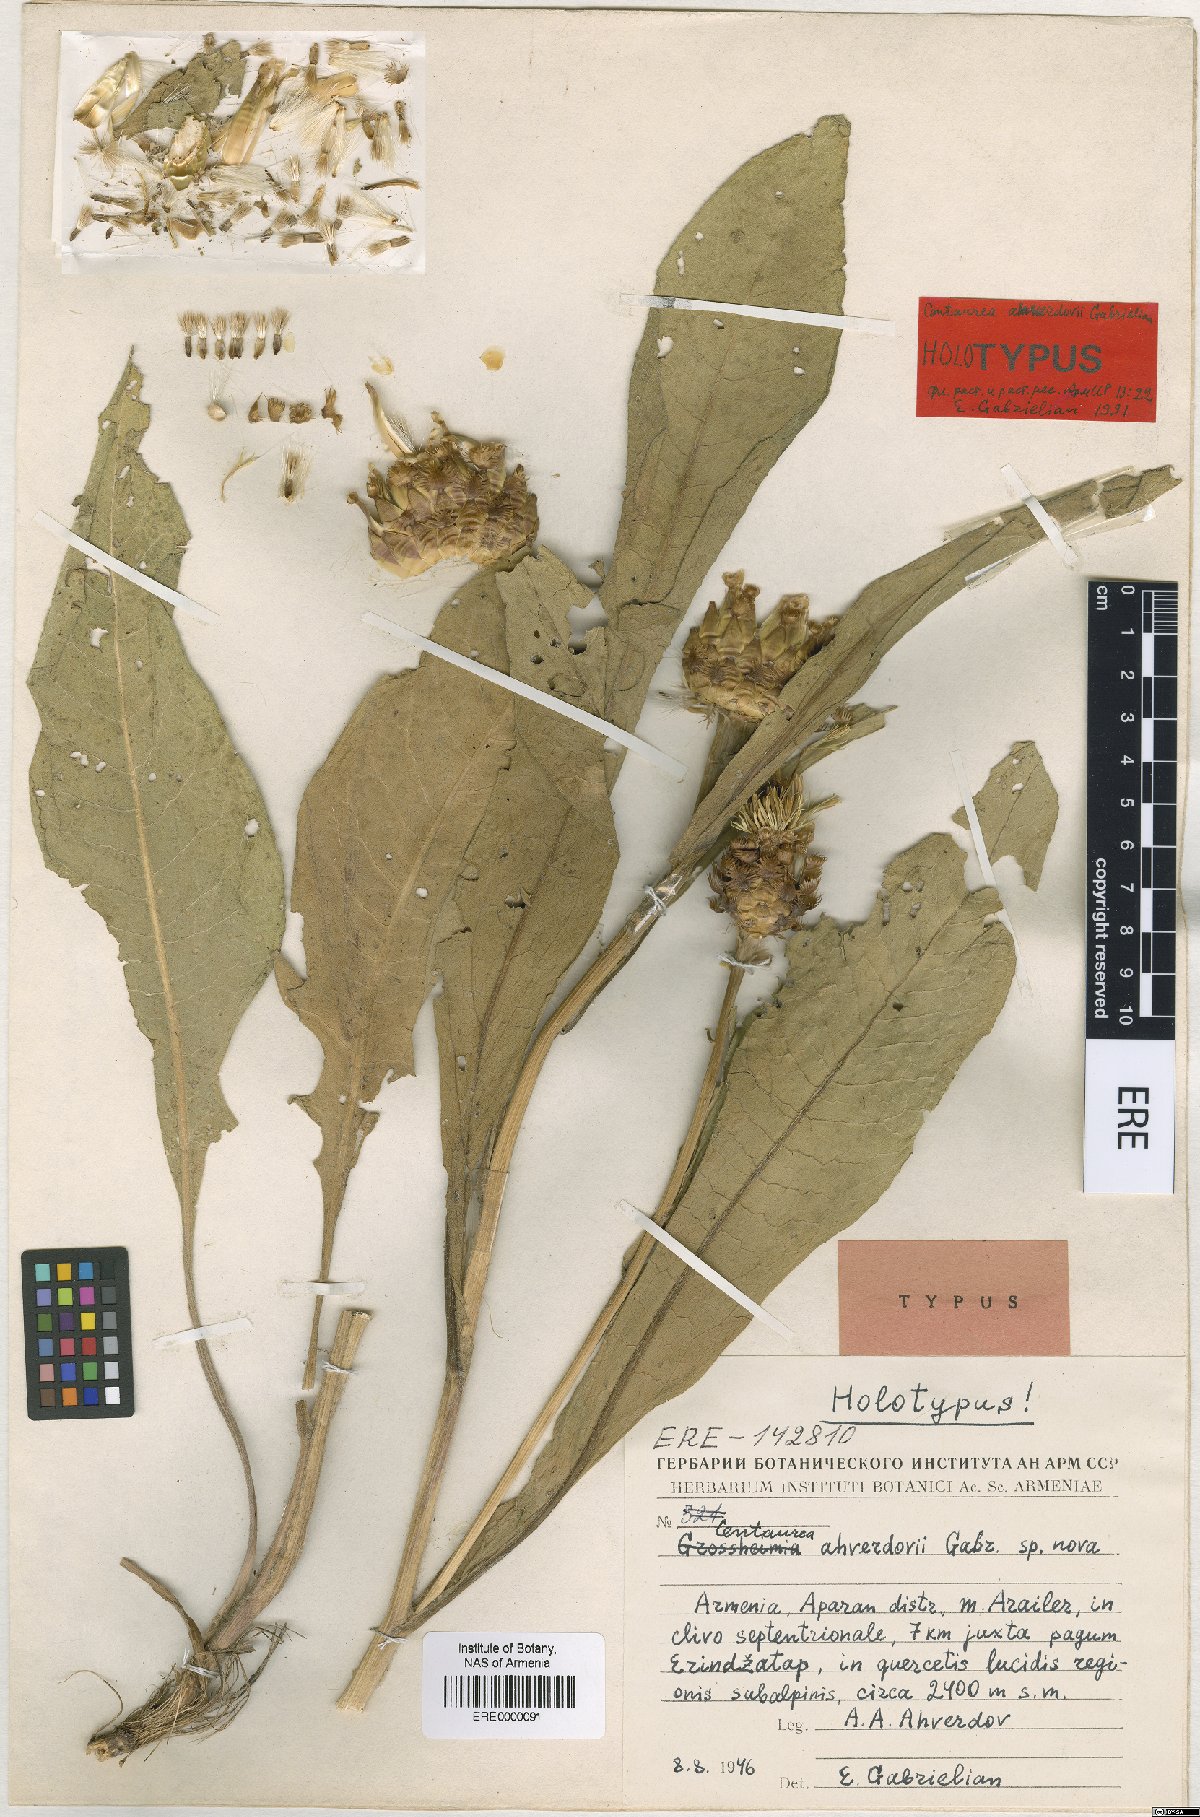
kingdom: Plantae
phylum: Tracheophyta
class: Magnoliopsida
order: Asterales
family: Asteraceae
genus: Centaurea
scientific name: Centaurea ahverdovii
